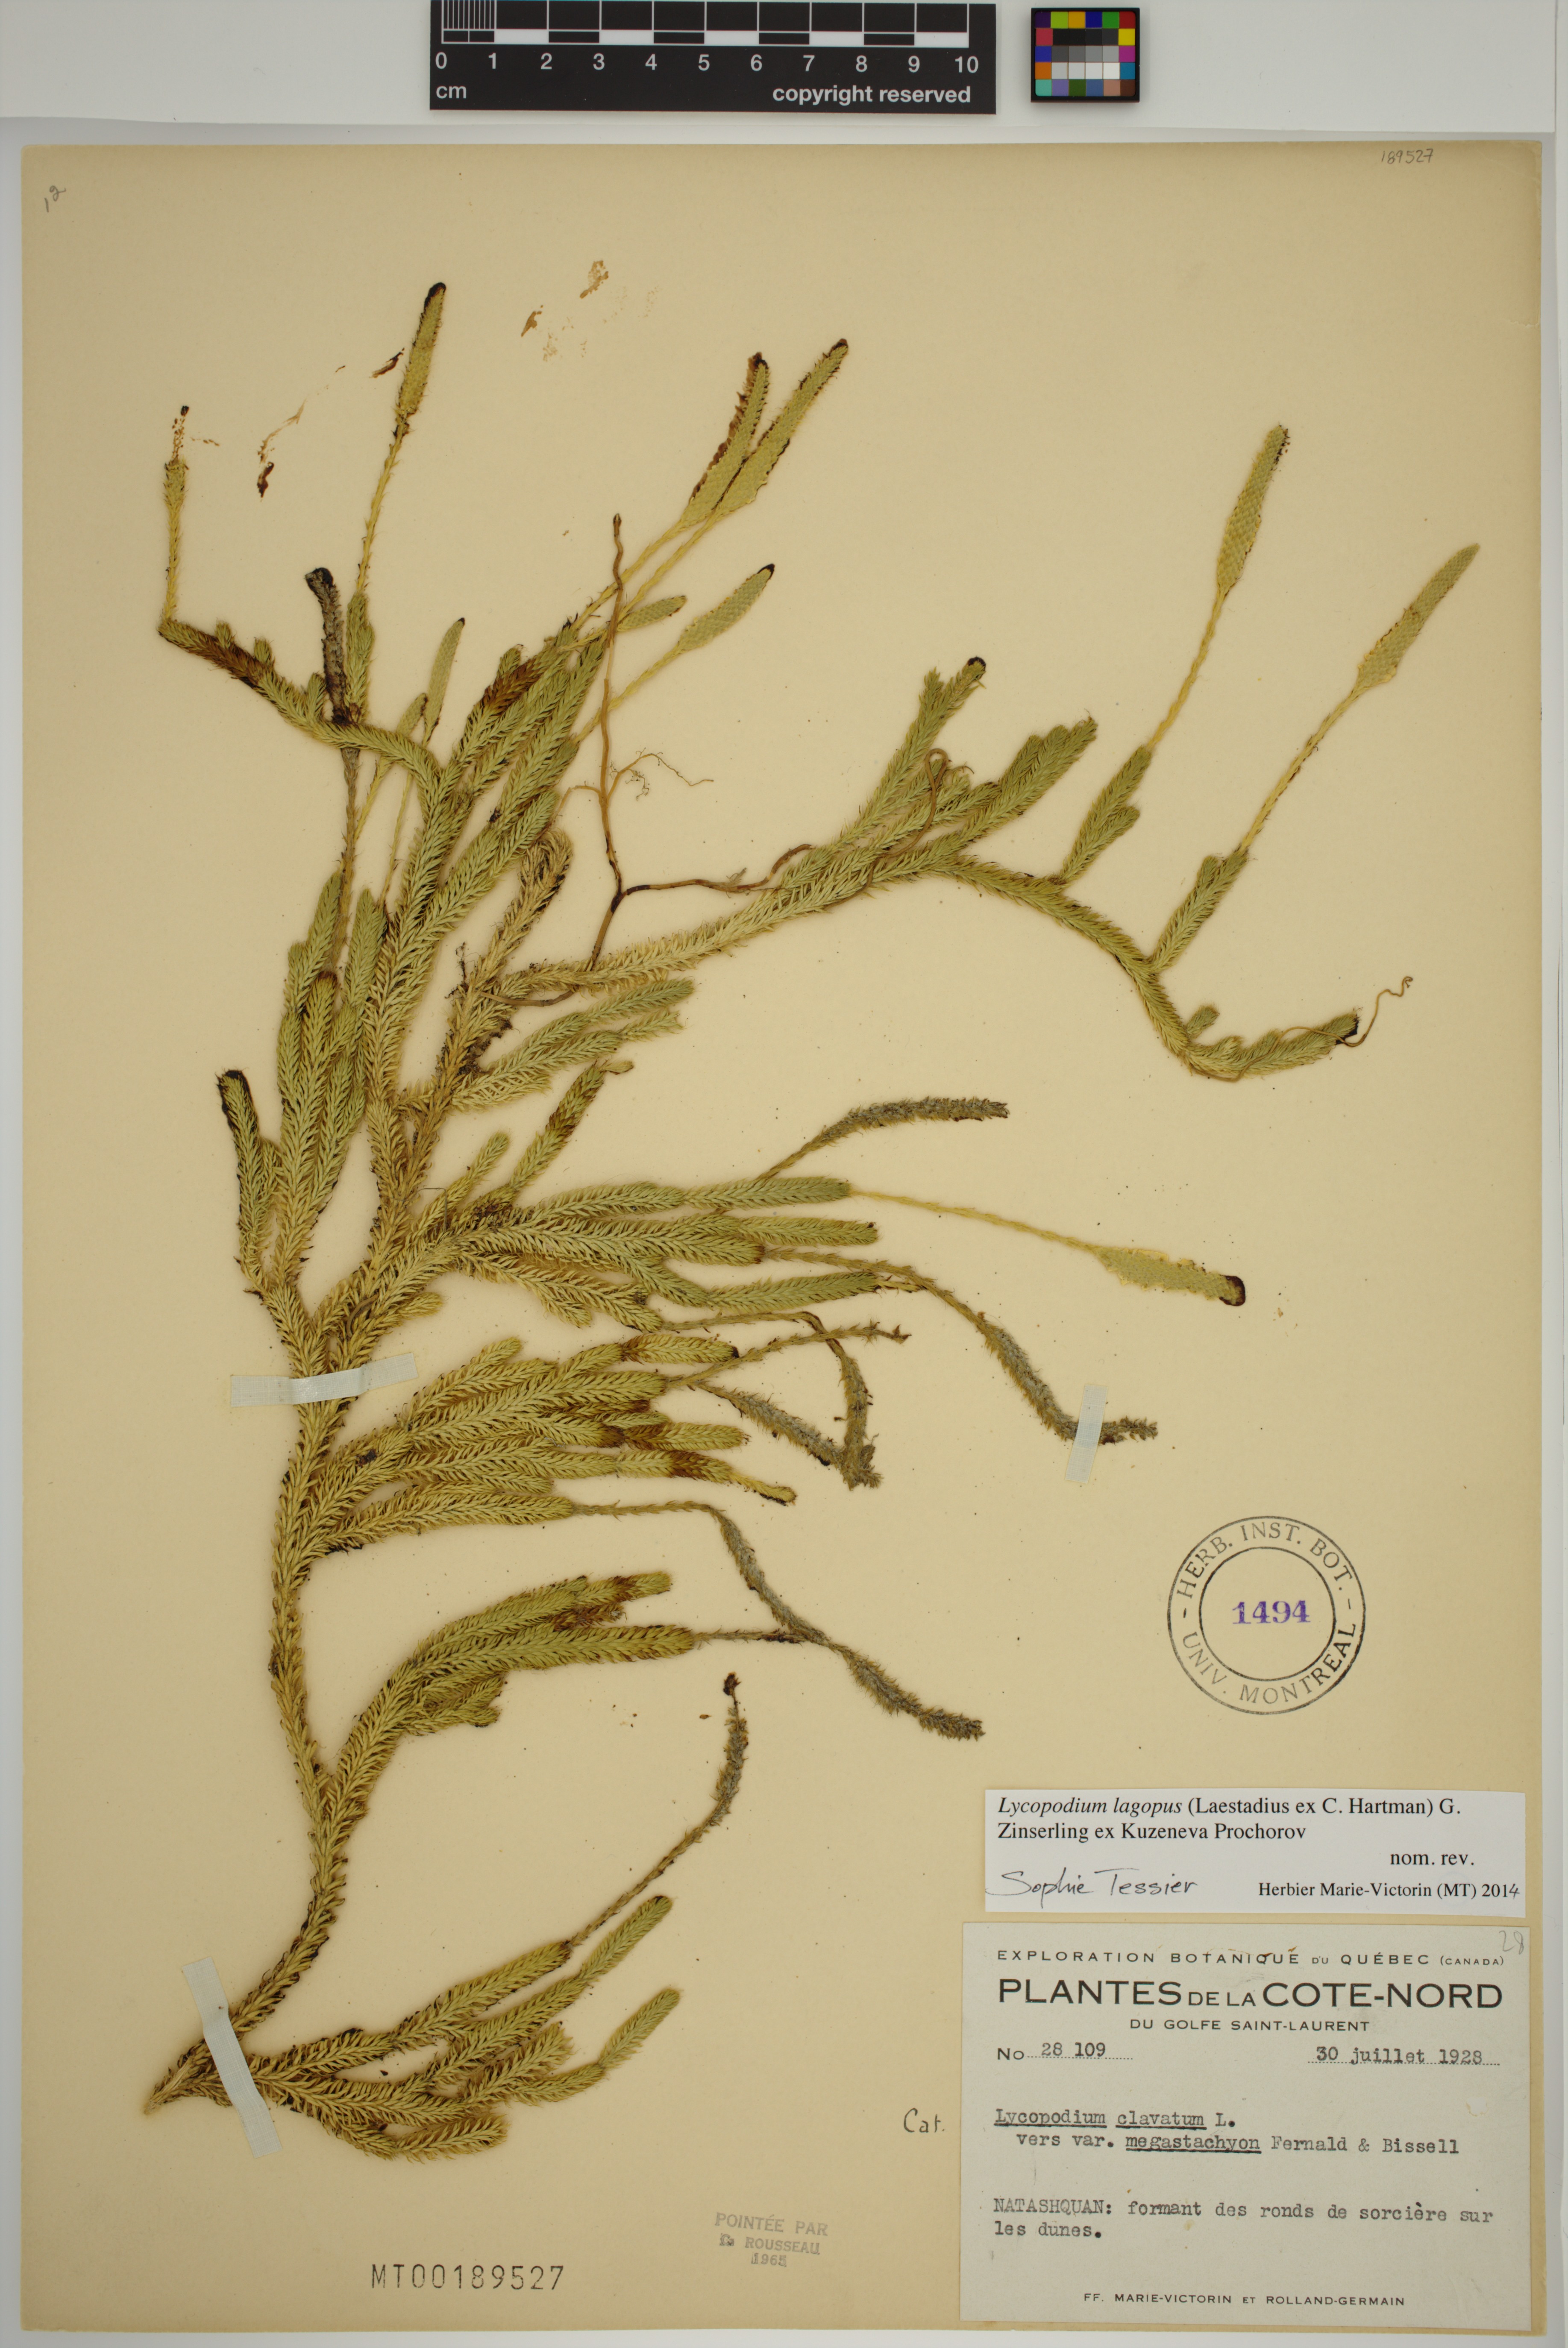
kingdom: Plantae
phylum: Tracheophyta
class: Lycopodiopsida
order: Lycopodiales
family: Lycopodiaceae
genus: Lycopodium
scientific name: Lycopodium lagopus
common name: One-cone clubmoss
